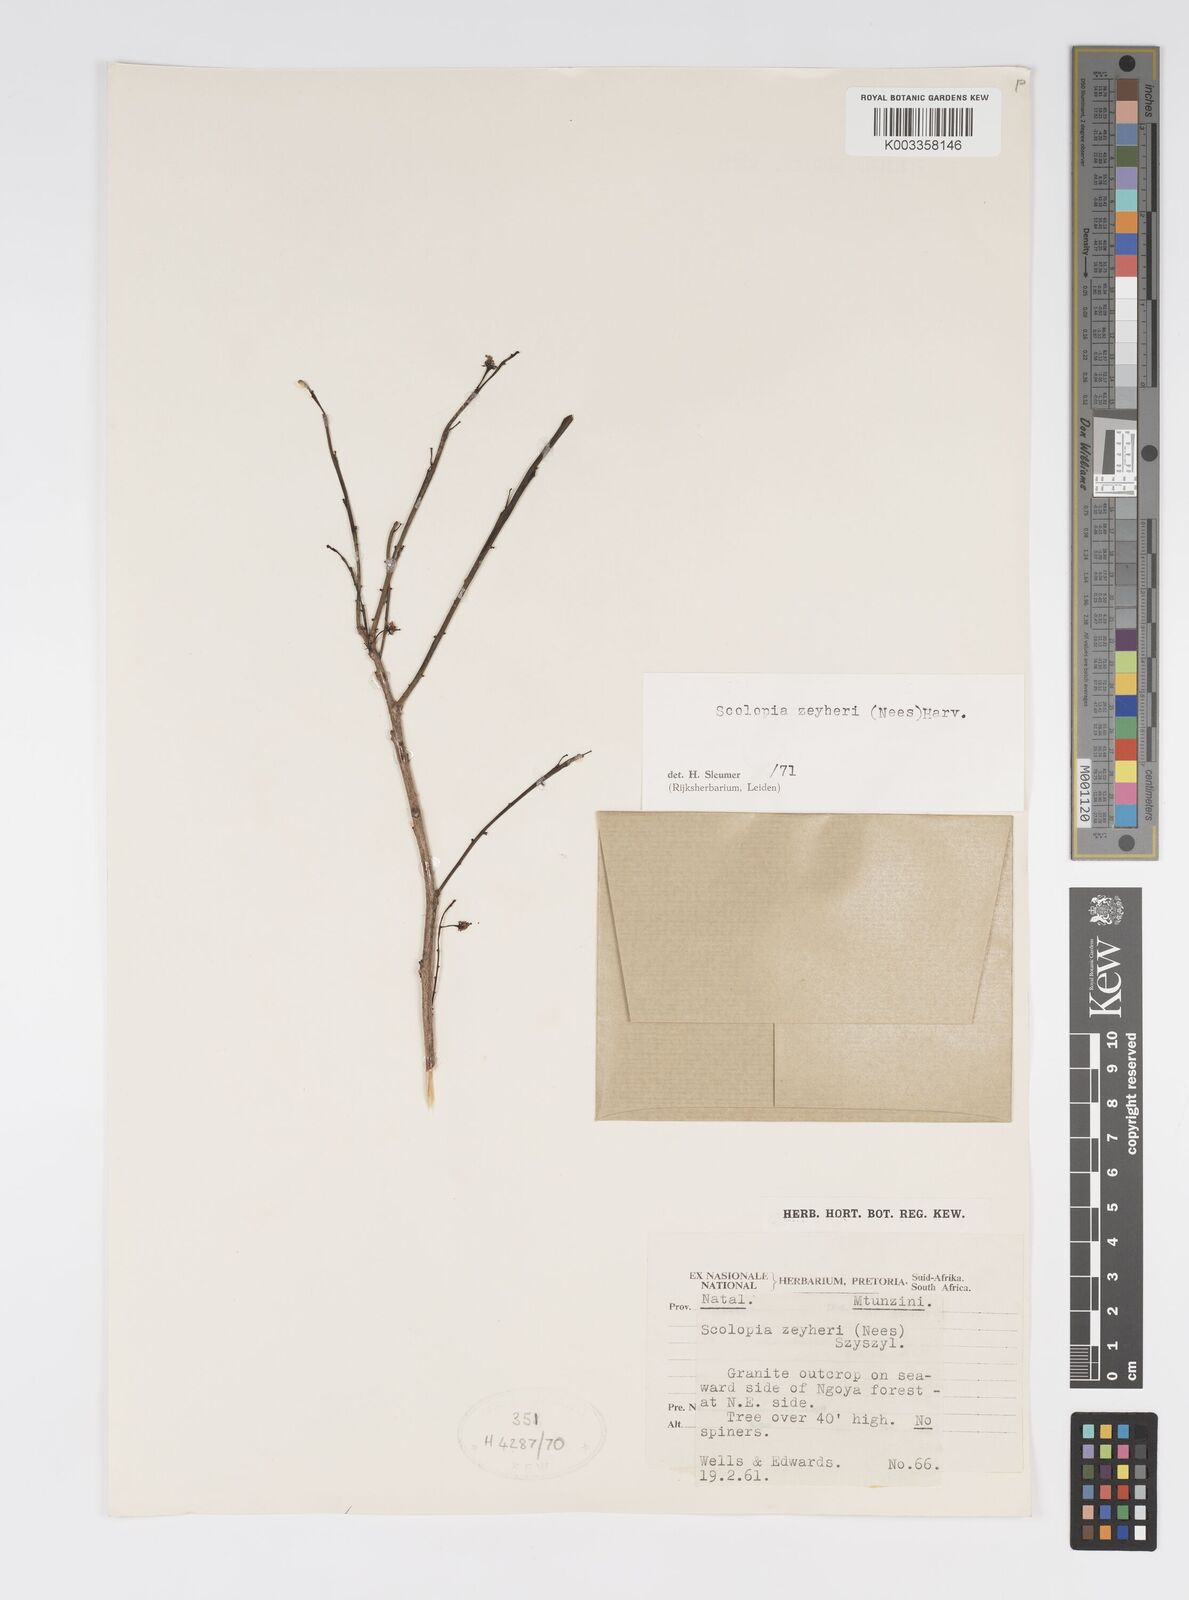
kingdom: Plantae
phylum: Tracheophyta
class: Magnoliopsida
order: Malpighiales
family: Salicaceae
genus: Scolopia
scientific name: Scolopia zeyheri
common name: Thorn pear
